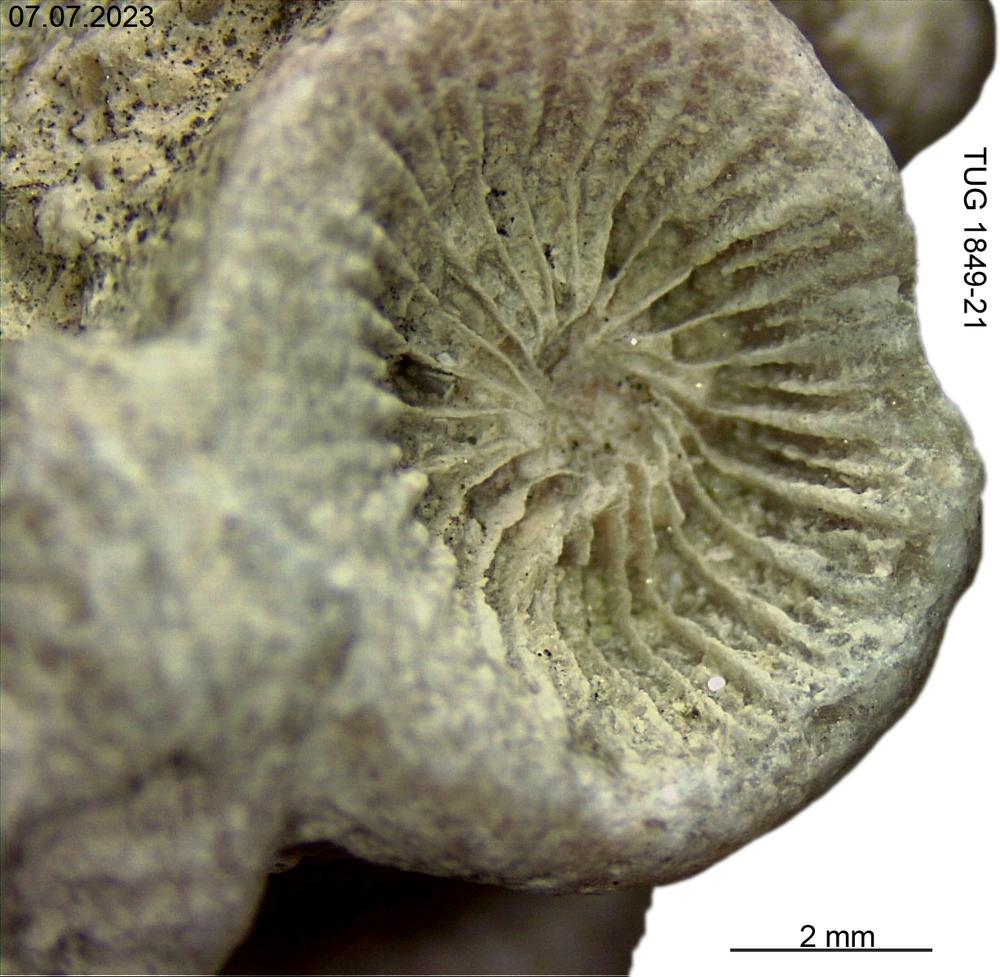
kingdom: Animalia
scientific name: Animalia
